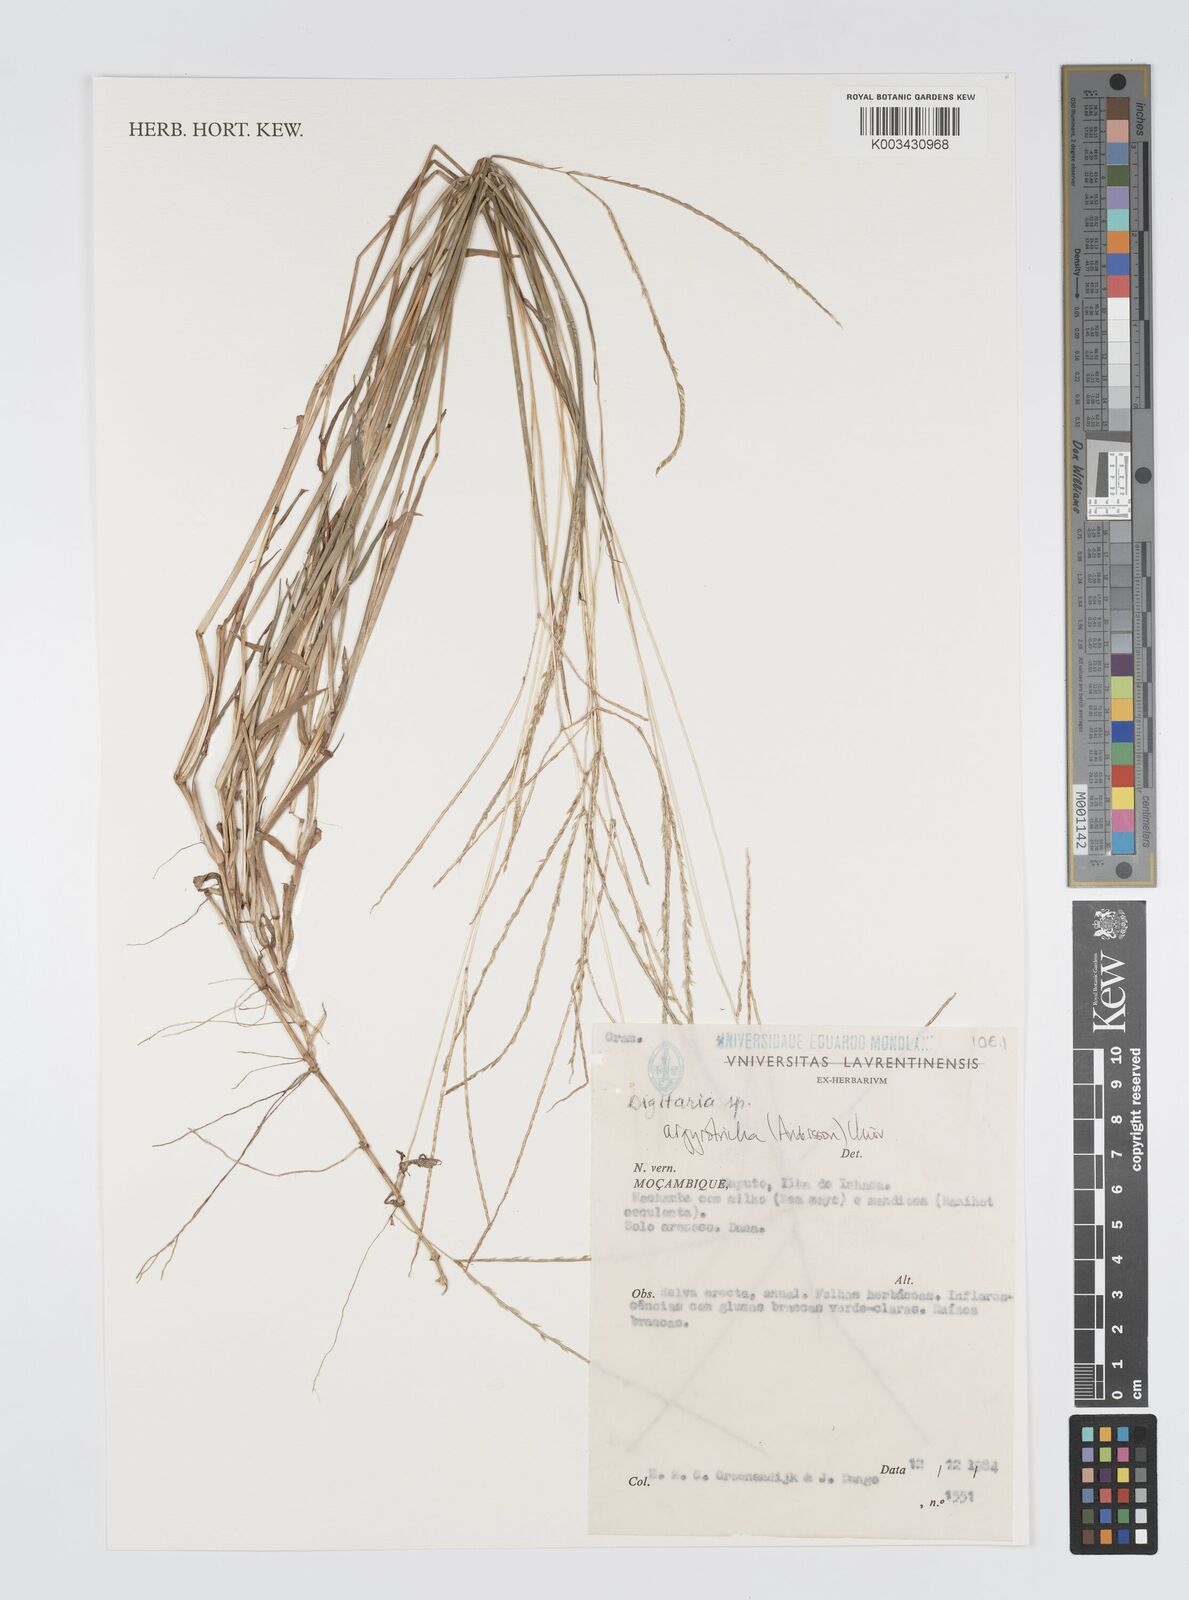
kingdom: Plantae
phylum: Tracheophyta
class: Liliopsida
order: Poales
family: Poaceae
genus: Digitaria
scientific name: Digitaria argyrotricha
